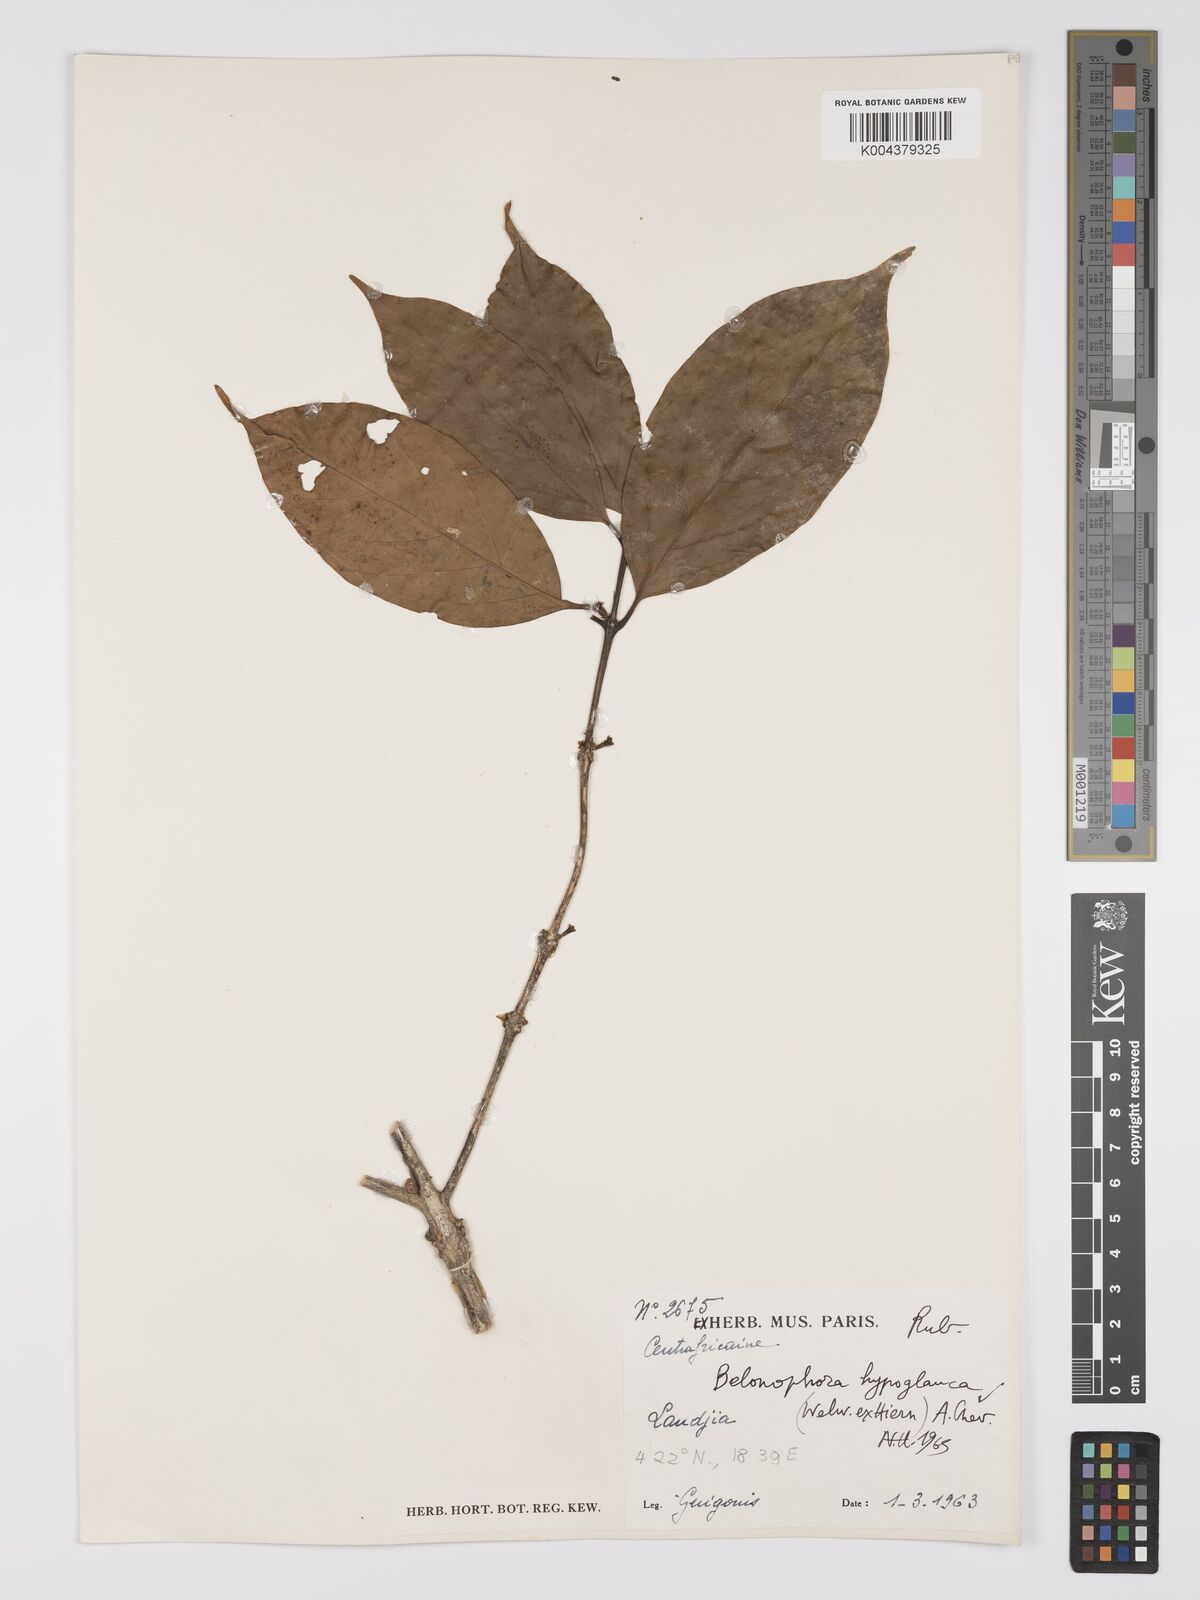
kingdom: Plantae
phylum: Tracheophyta
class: Magnoliopsida
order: Gentianales
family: Rubiaceae
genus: Belonophora
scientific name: Belonophora coffeoides
